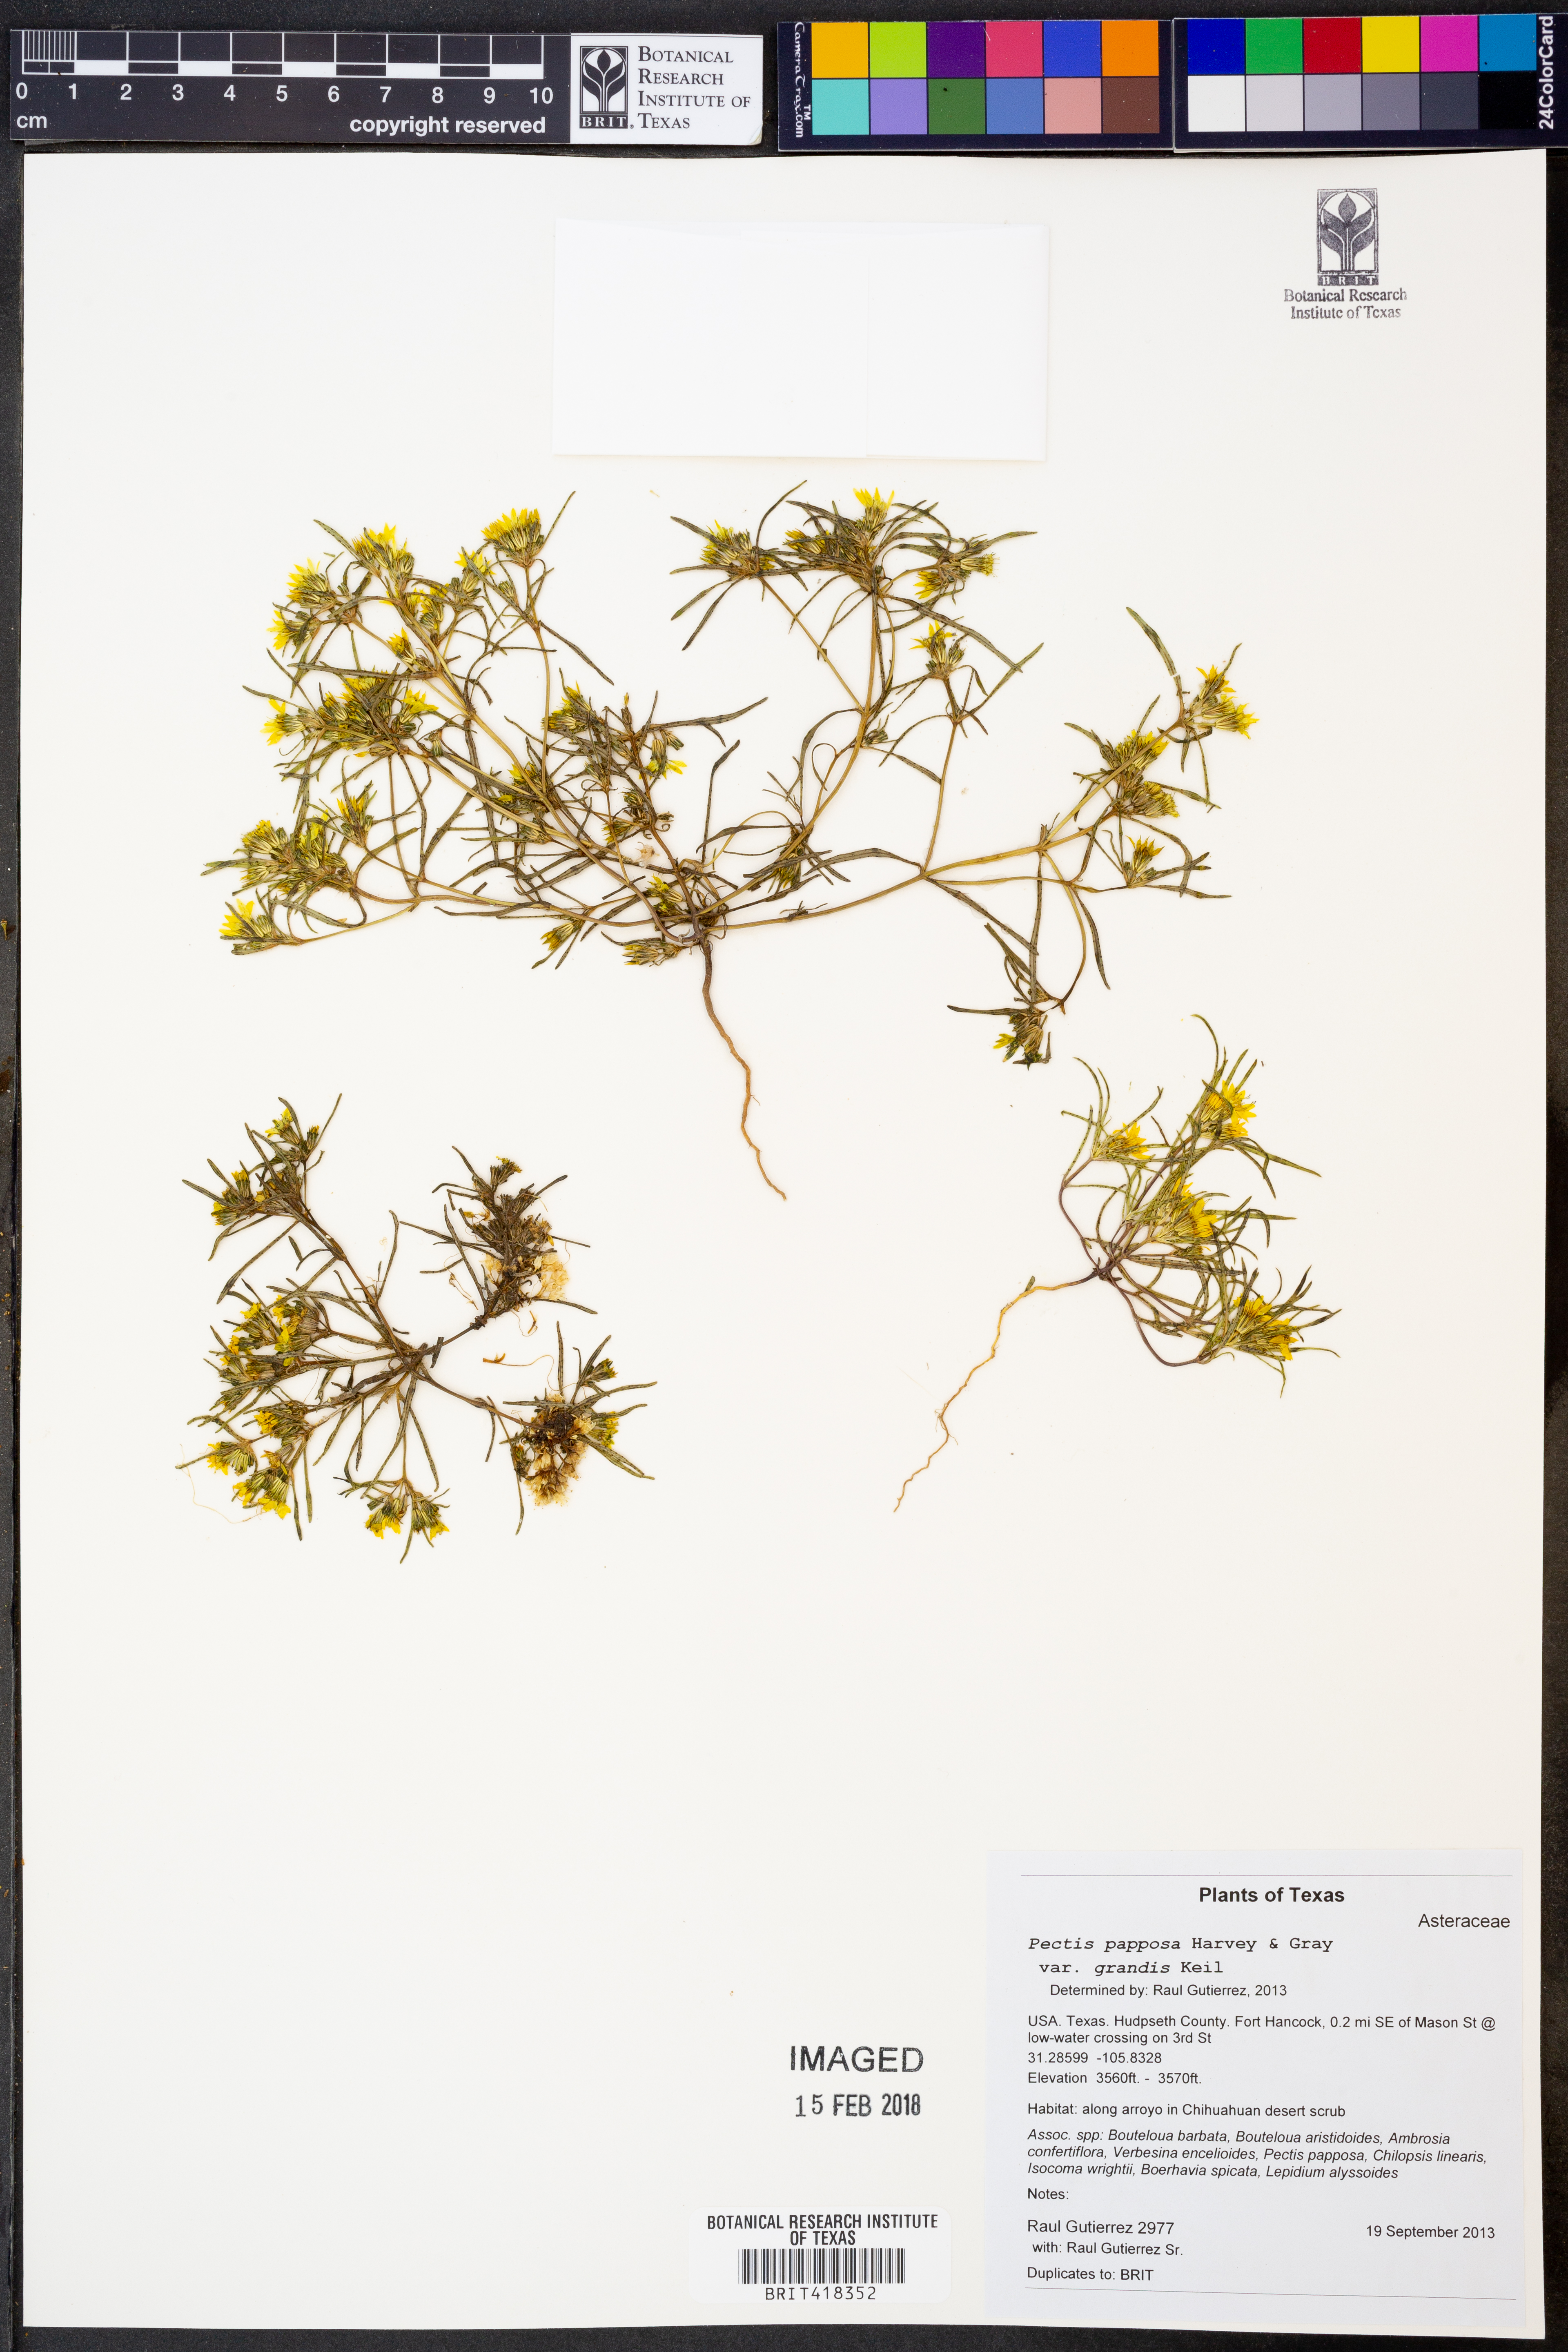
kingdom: Plantae
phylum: Tracheophyta
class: Magnoliopsida
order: Asterales
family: Asteraceae
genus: Pectis
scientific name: Pectis papposa
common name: Many-bristle chinchweed
